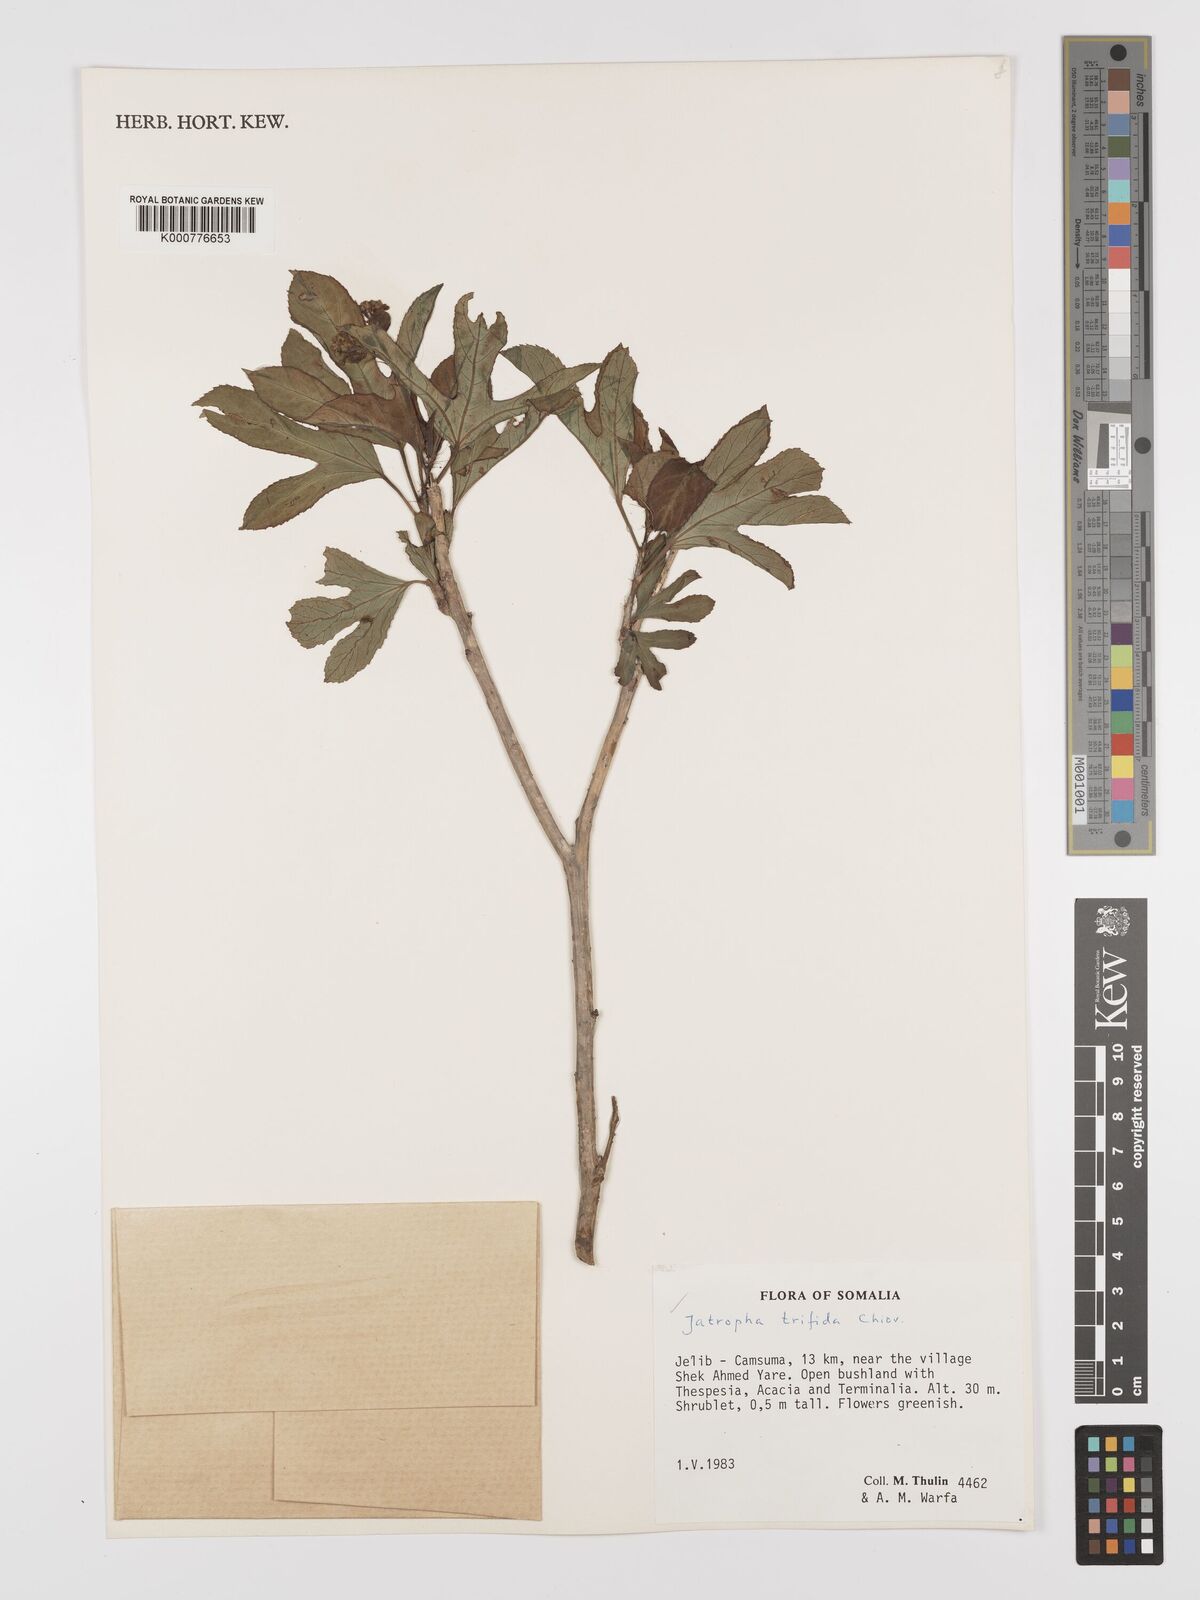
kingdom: Plantae
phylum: Tracheophyta
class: Magnoliopsida
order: Malpighiales
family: Euphorbiaceae
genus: Jatropha
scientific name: Jatropha trifida
